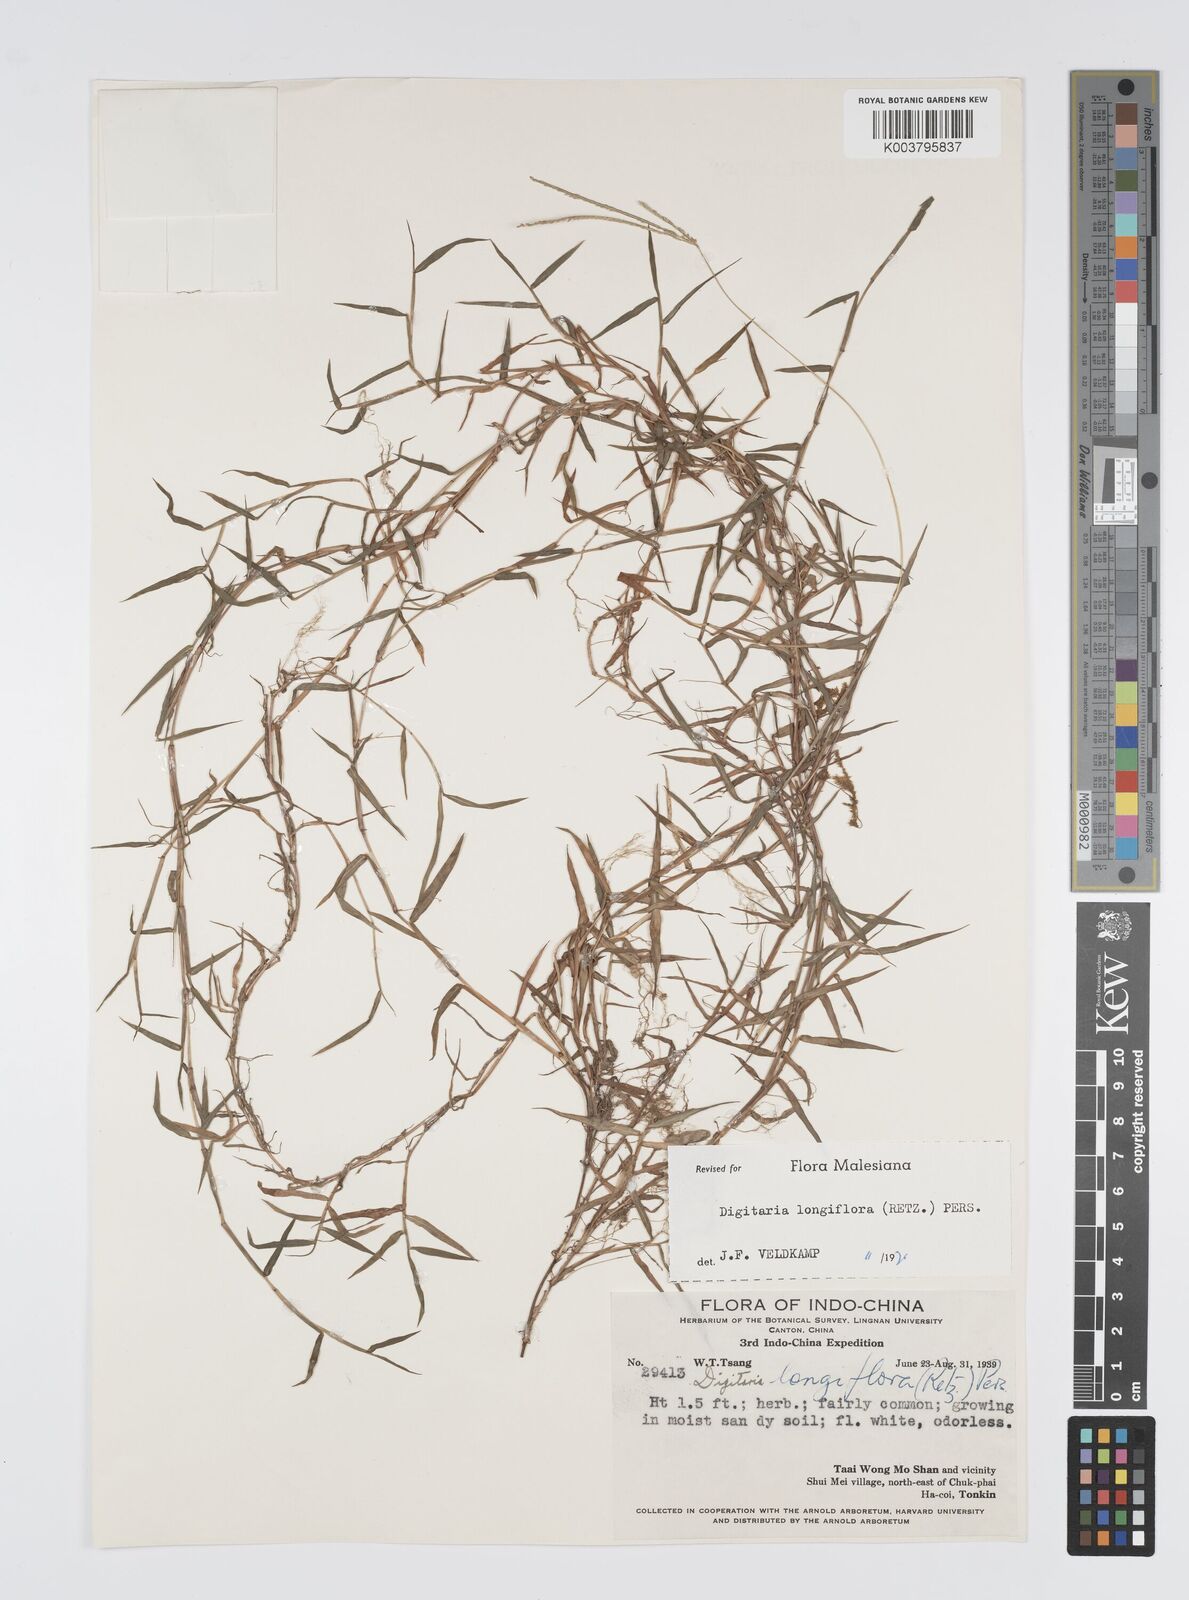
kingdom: Plantae
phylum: Tracheophyta
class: Liliopsida
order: Poales
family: Poaceae
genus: Digitaria
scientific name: Digitaria longiflora
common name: Wire crabgrass
